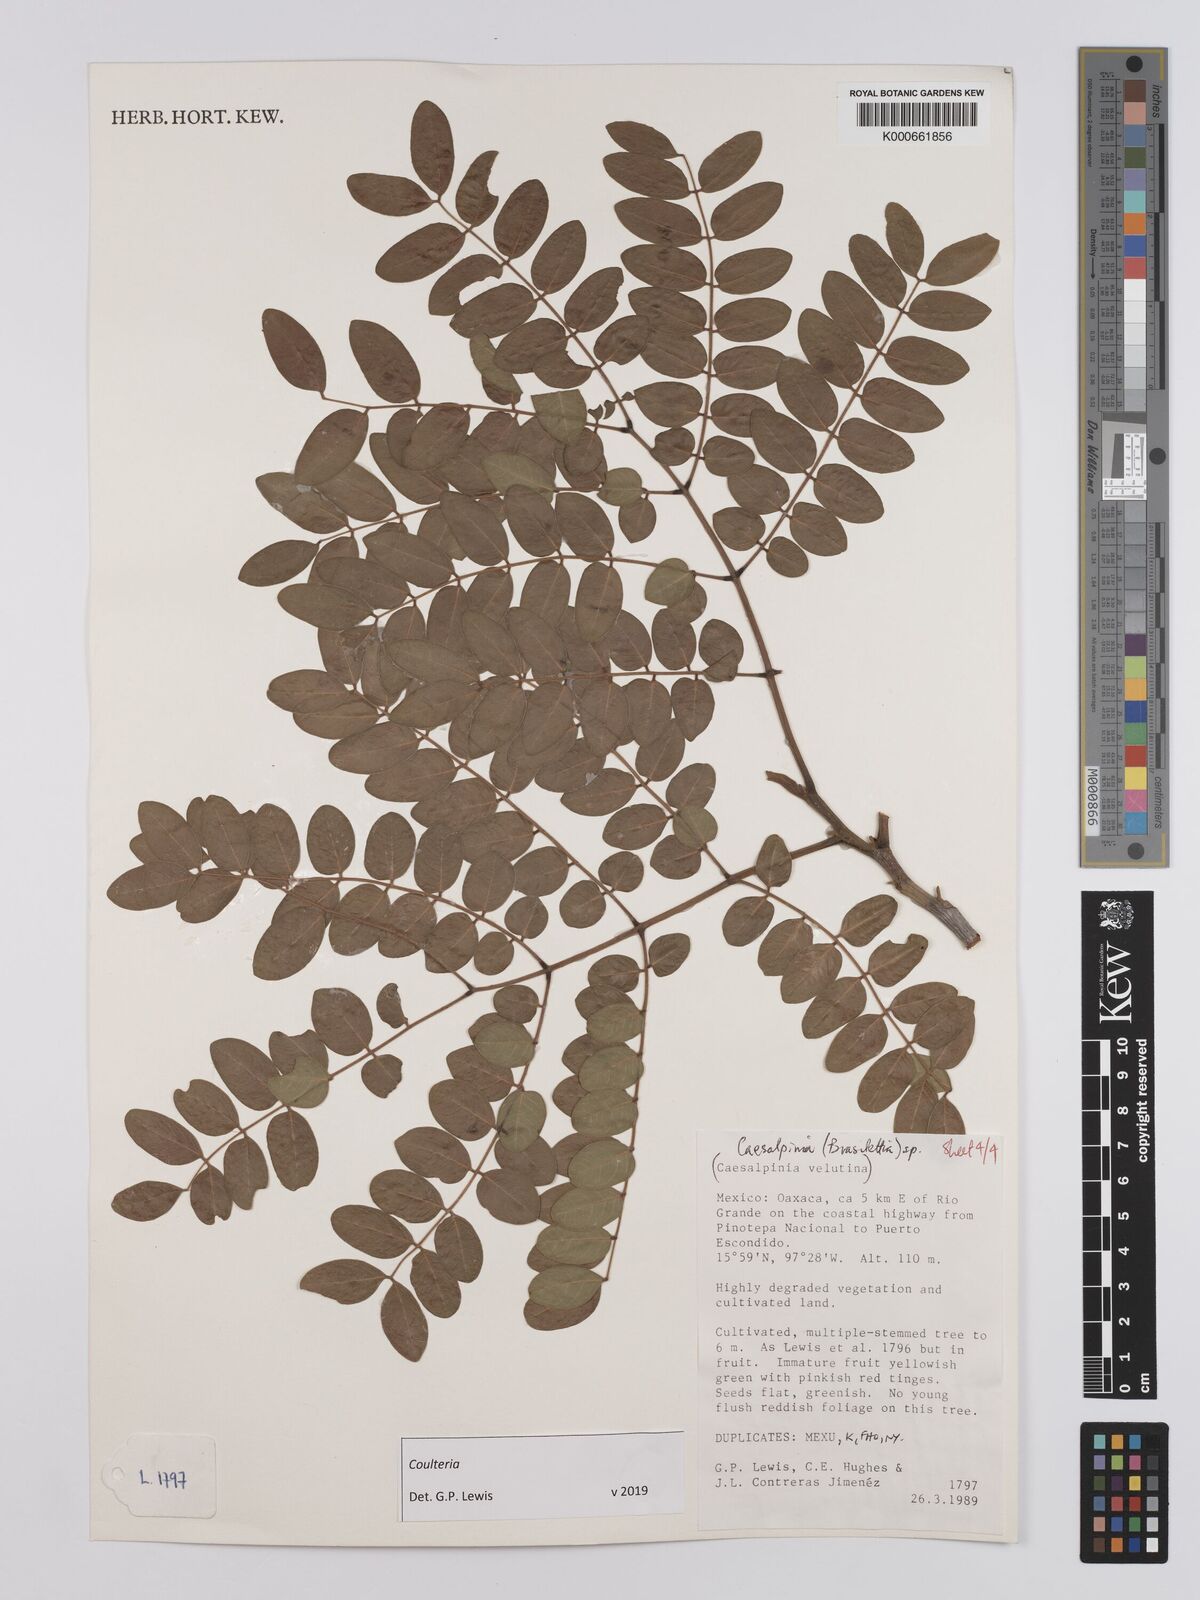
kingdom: Plantae
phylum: Tracheophyta
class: Magnoliopsida
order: Fabales
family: Fabaceae
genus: Coulteria
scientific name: Coulteria
